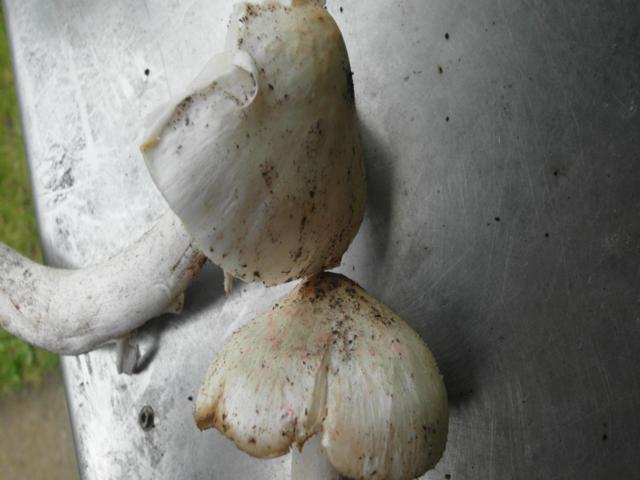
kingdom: Fungi
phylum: Basidiomycota
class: Agaricomycetes
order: Agaricales
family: Tricholomataceae
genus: Tricholoma
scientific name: Tricholoma columbetta
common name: silke-ridderhat
